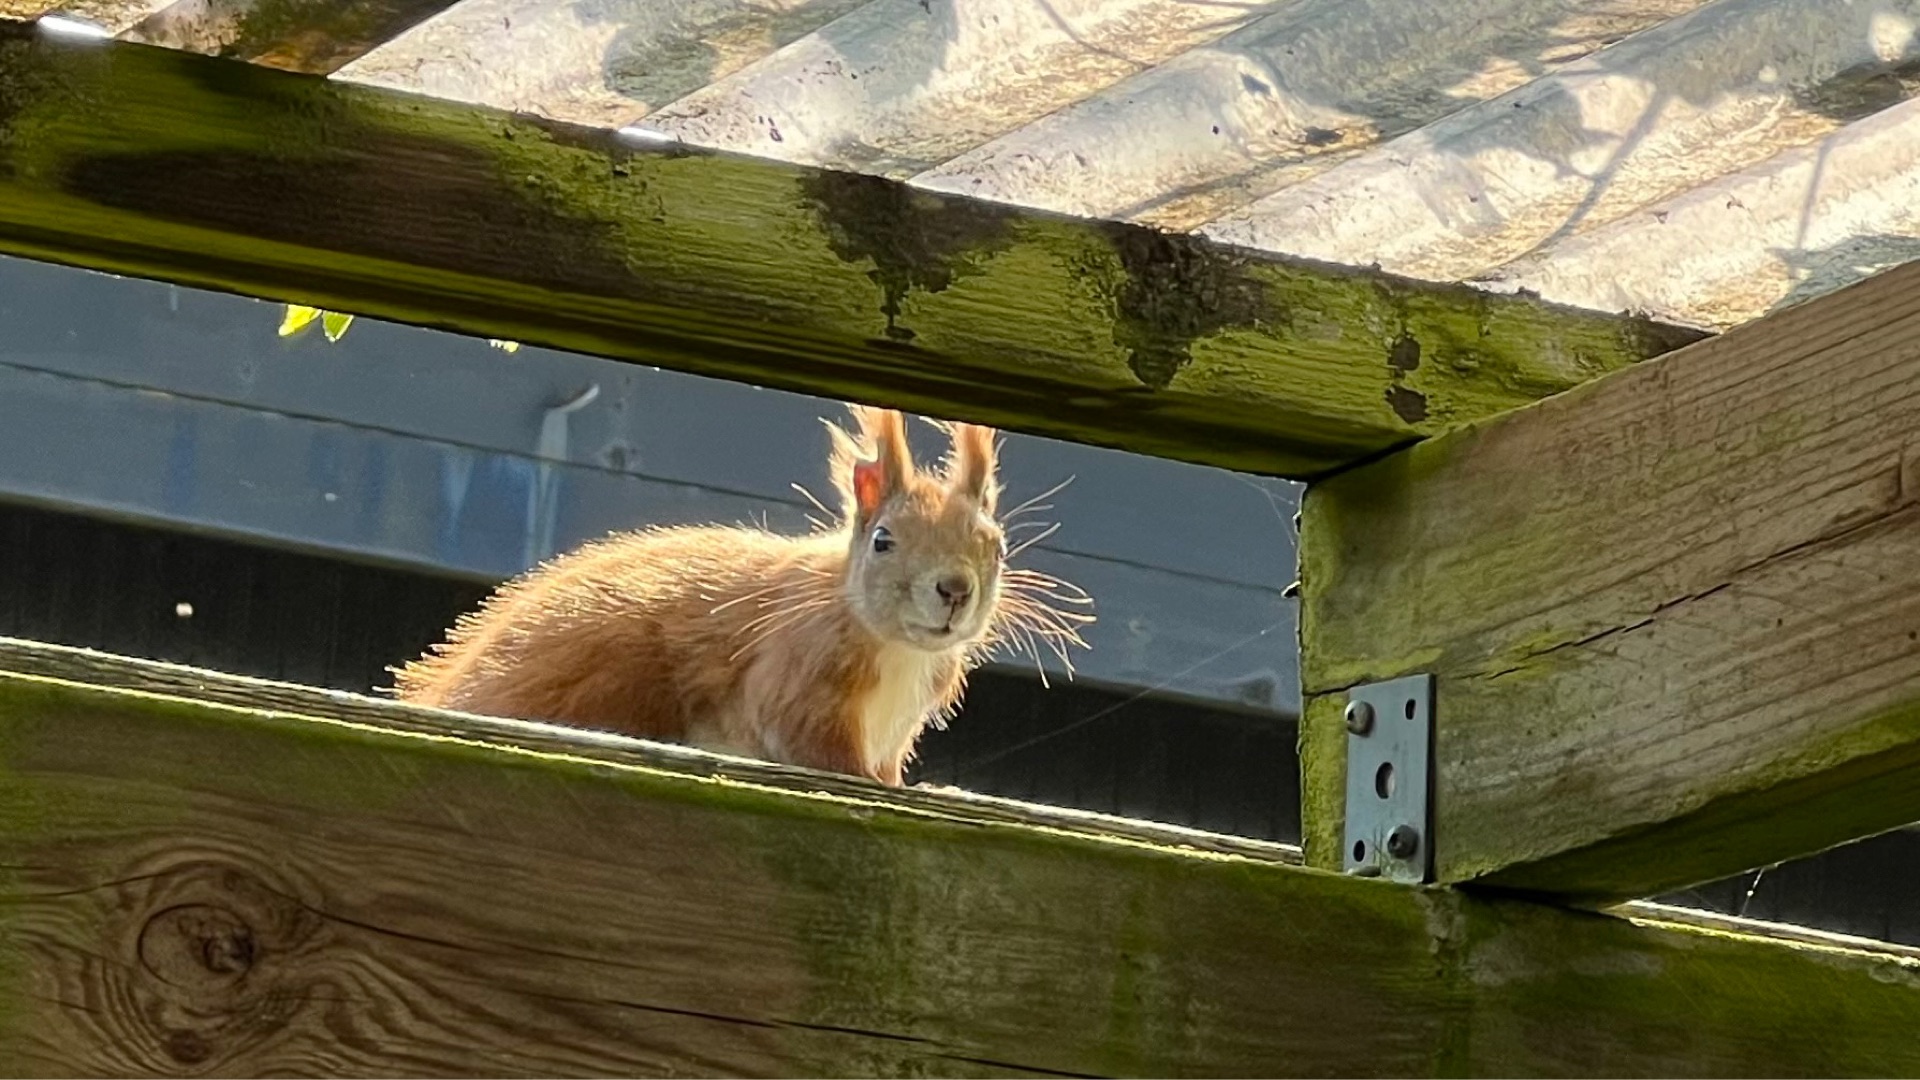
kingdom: Animalia
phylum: Chordata
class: Mammalia
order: Rodentia
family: Sciuridae
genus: Sciurus
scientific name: Sciurus vulgaris
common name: Egern
